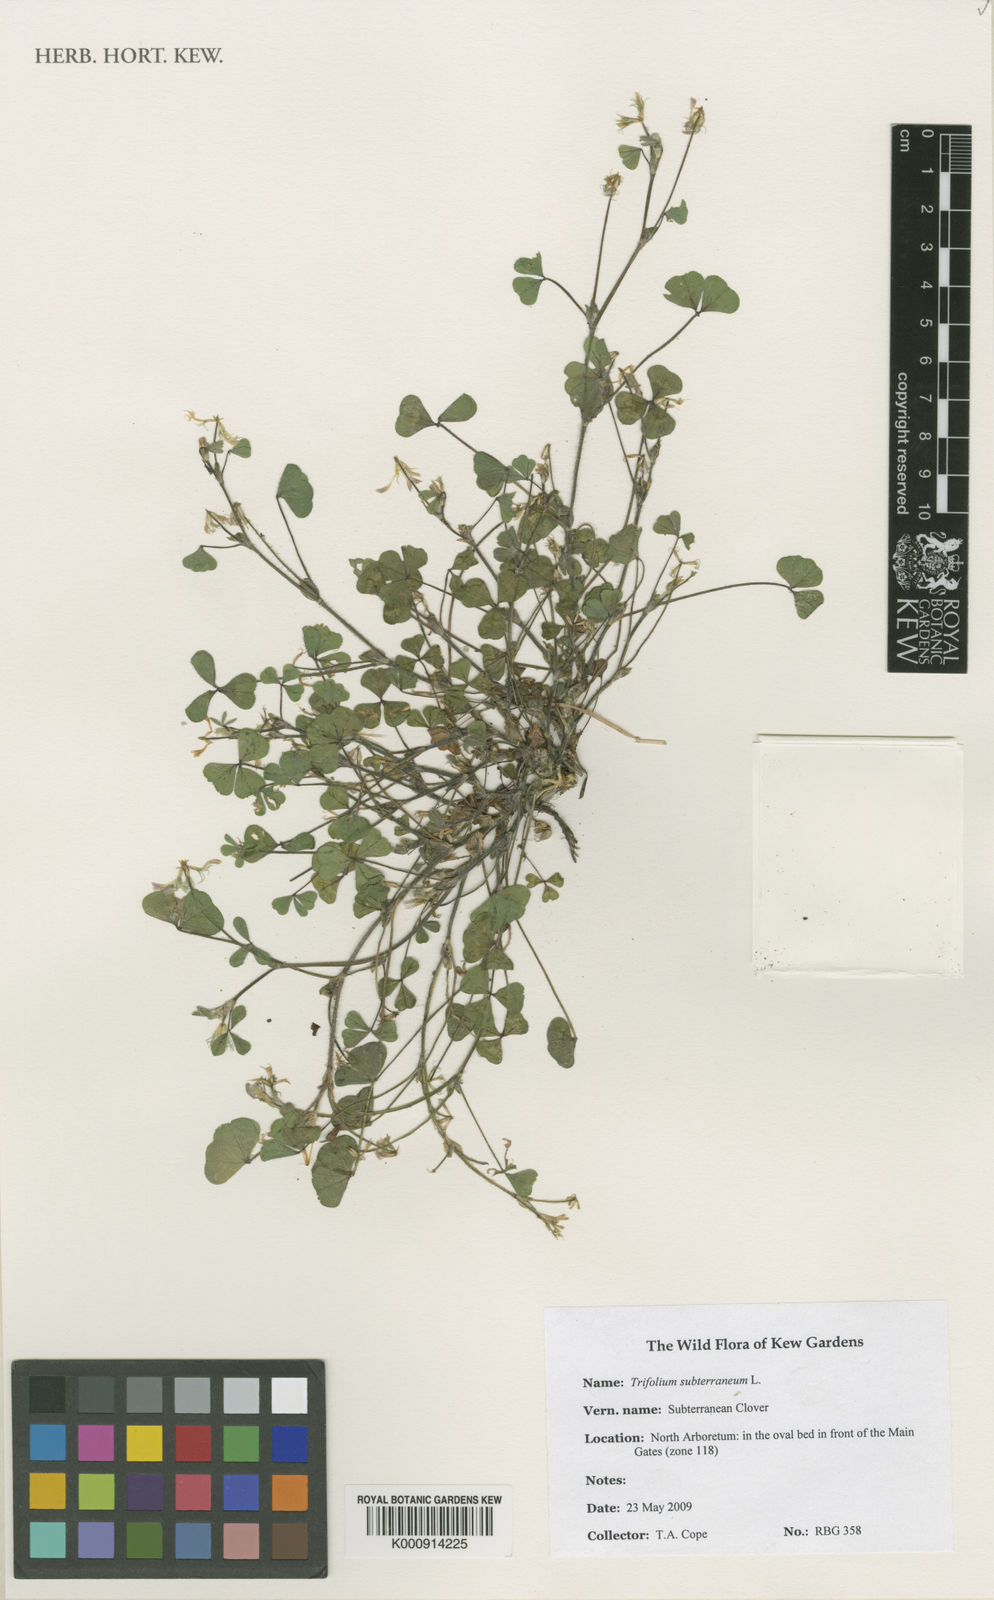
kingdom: Plantae
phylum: Tracheophyta
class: Magnoliopsida
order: Fabales
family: Fabaceae
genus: Trifolium
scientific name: Trifolium subterraneum
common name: Subterranean clover
